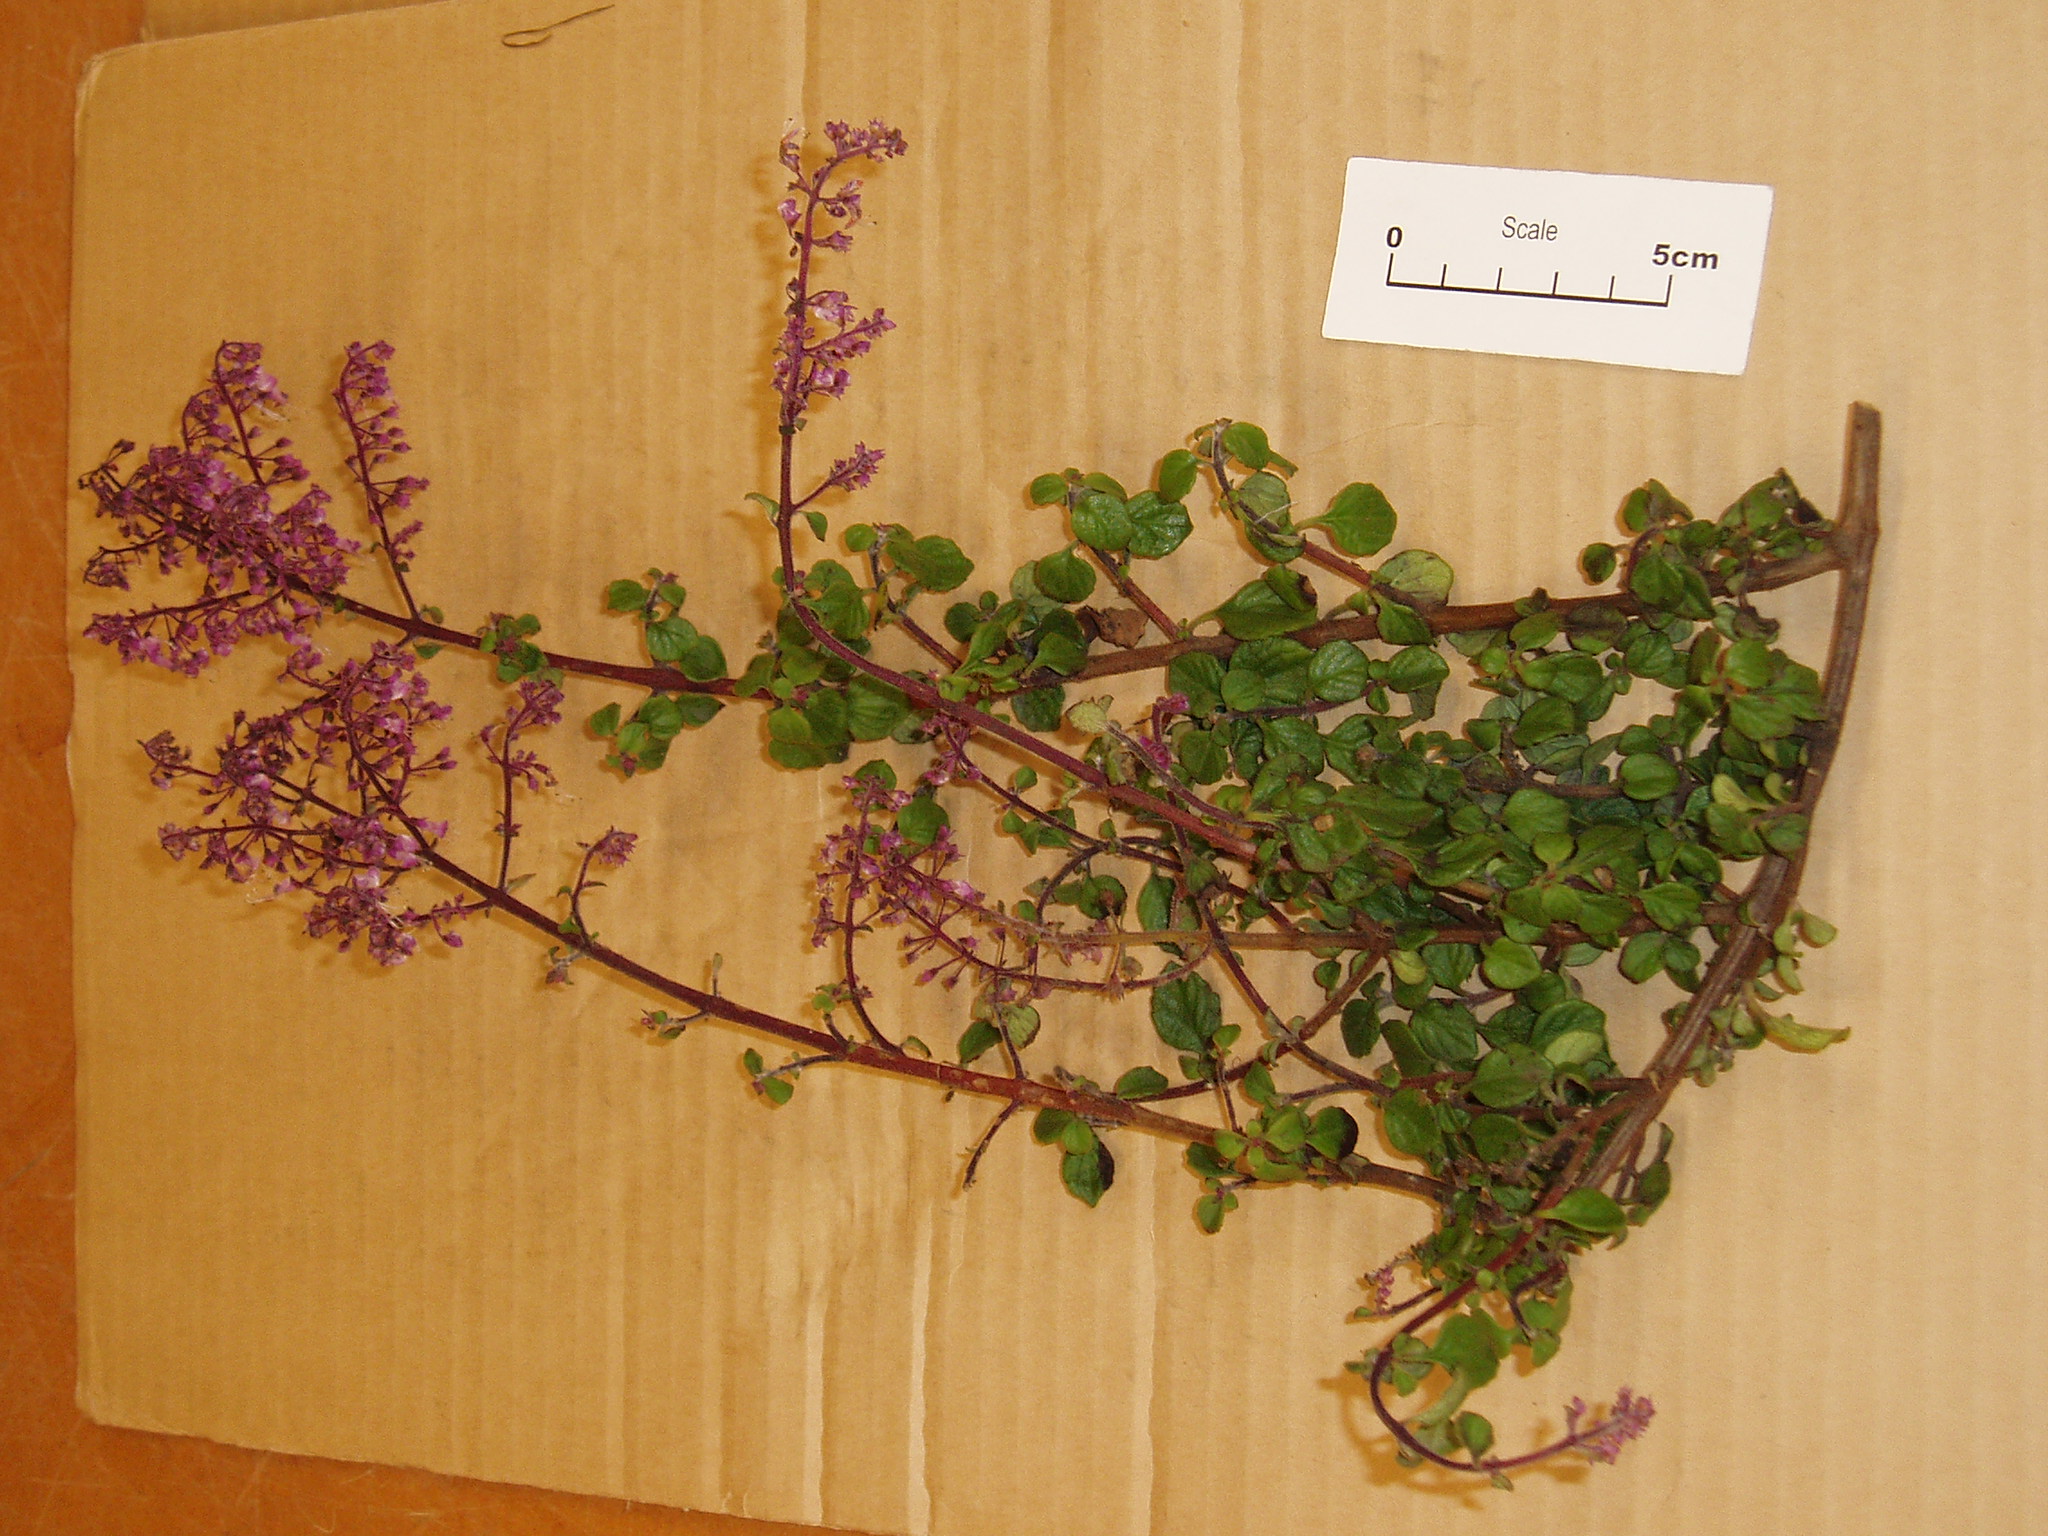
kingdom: Plantae
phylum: Tracheophyta
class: Magnoliopsida
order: Lamiales
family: Lamiaceae
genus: Plectranthus
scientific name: Plectranthus
